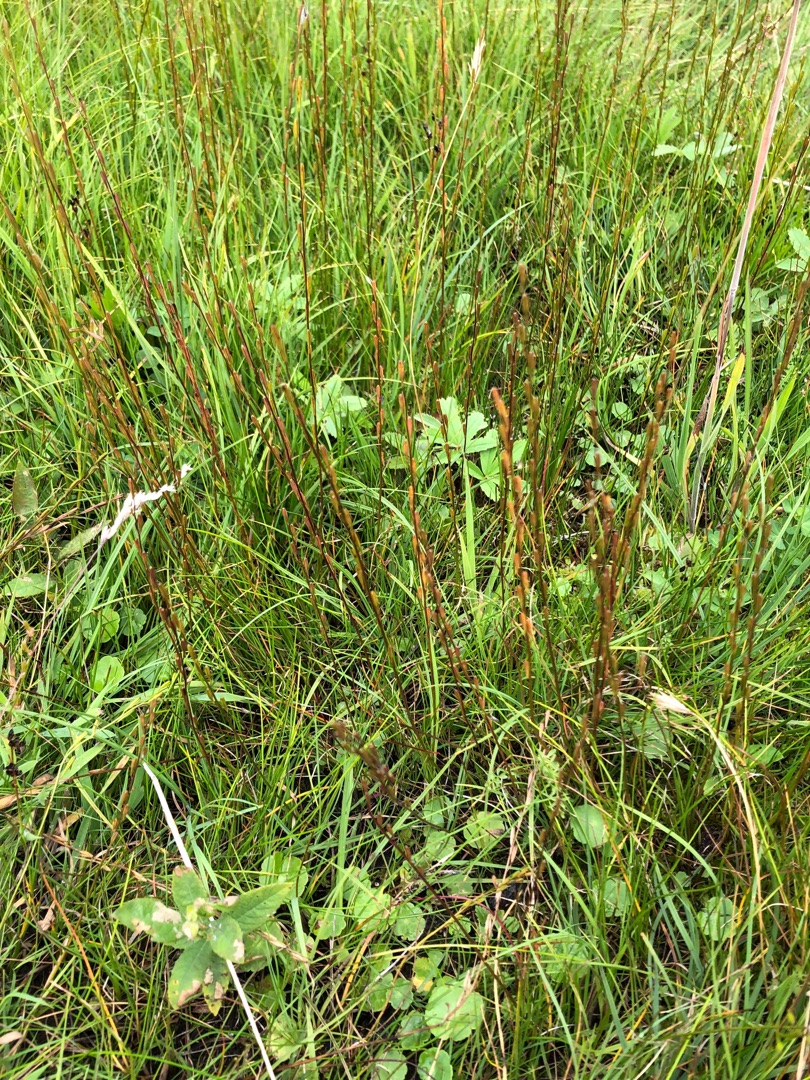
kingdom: Plantae
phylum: Tracheophyta
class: Liliopsida
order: Alismatales
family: Juncaginaceae
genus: Triglochin
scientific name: Triglochin palustris
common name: Kær-trehage
